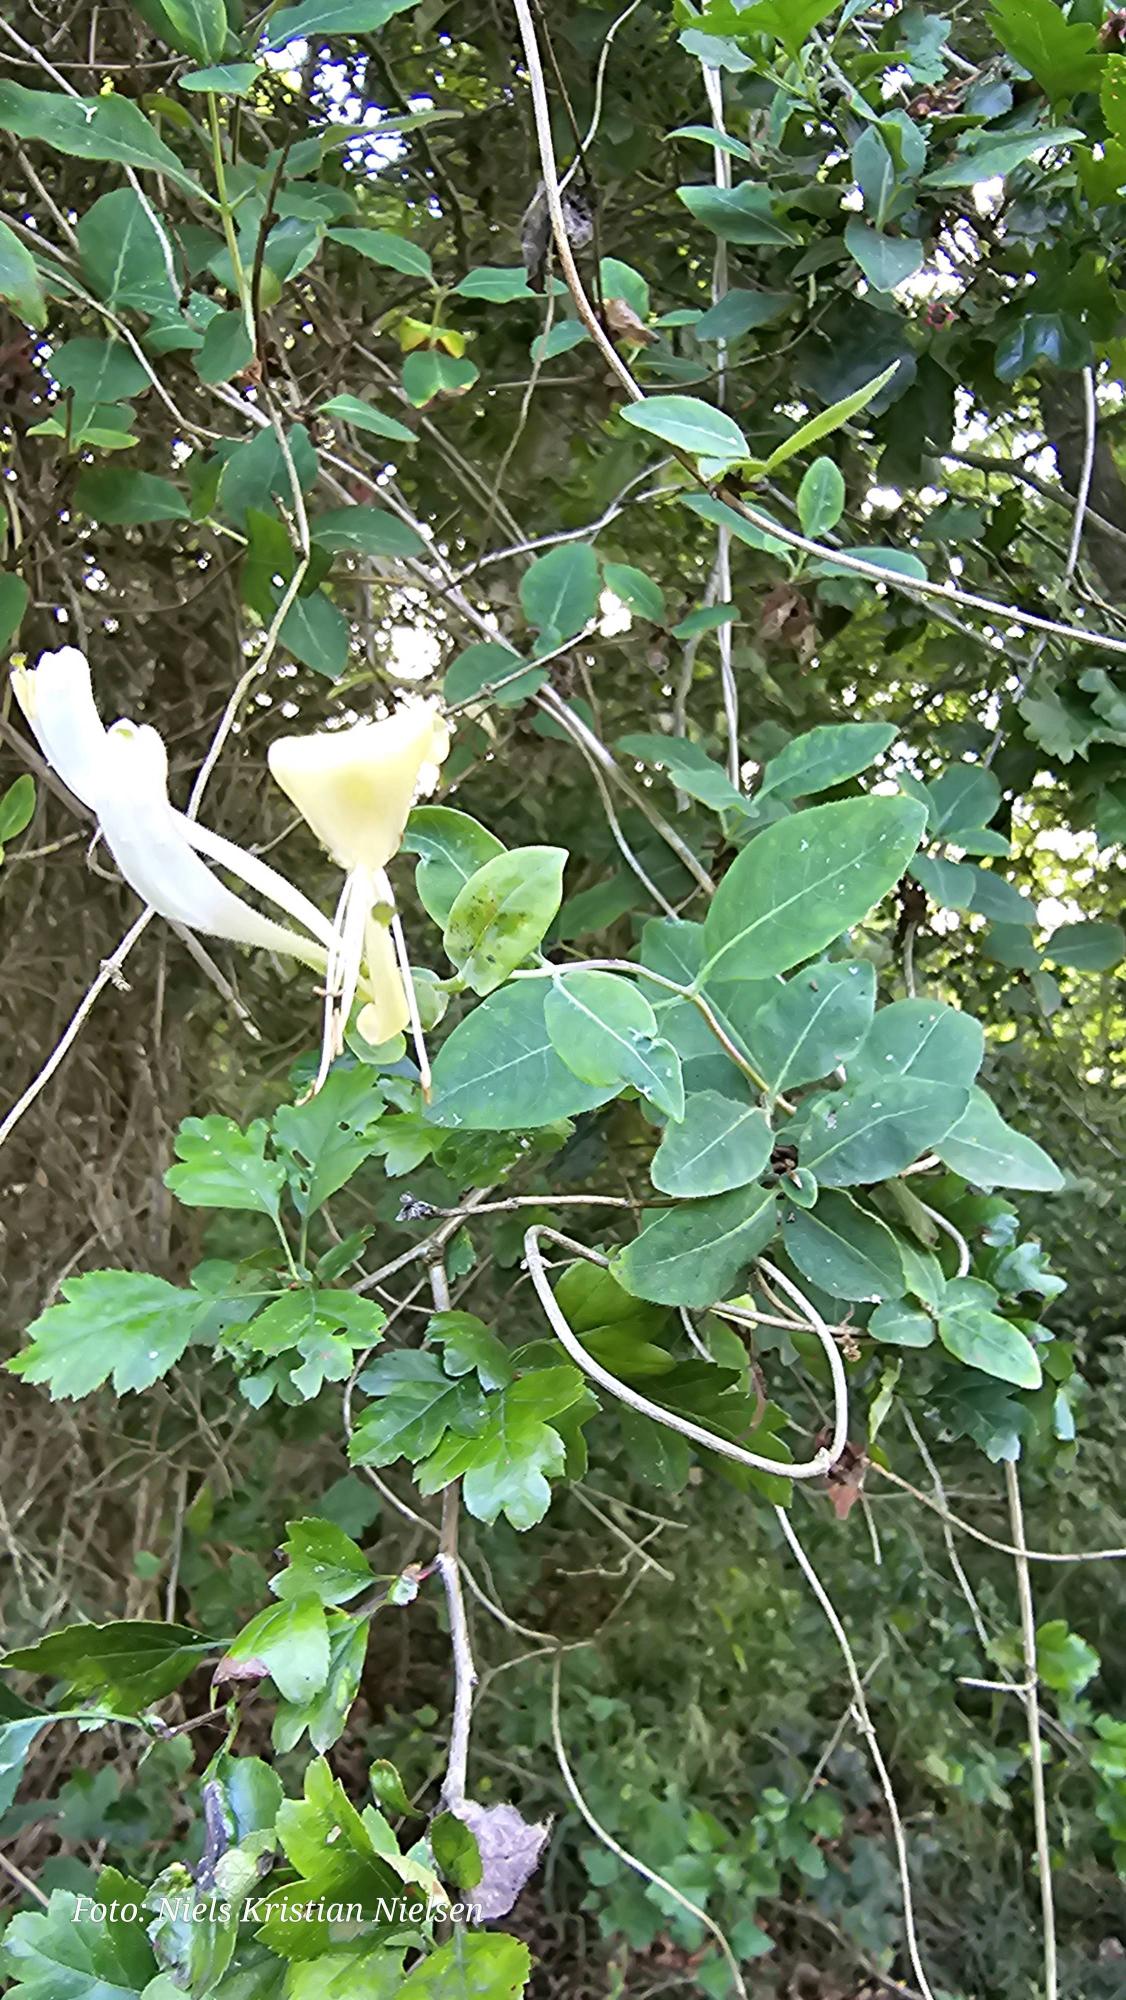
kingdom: Plantae
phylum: Tracheophyta
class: Magnoliopsida
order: Dipsacales
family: Caprifoliaceae
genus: Lonicera
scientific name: Lonicera periclymenum
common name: Almindelig gedeblad
